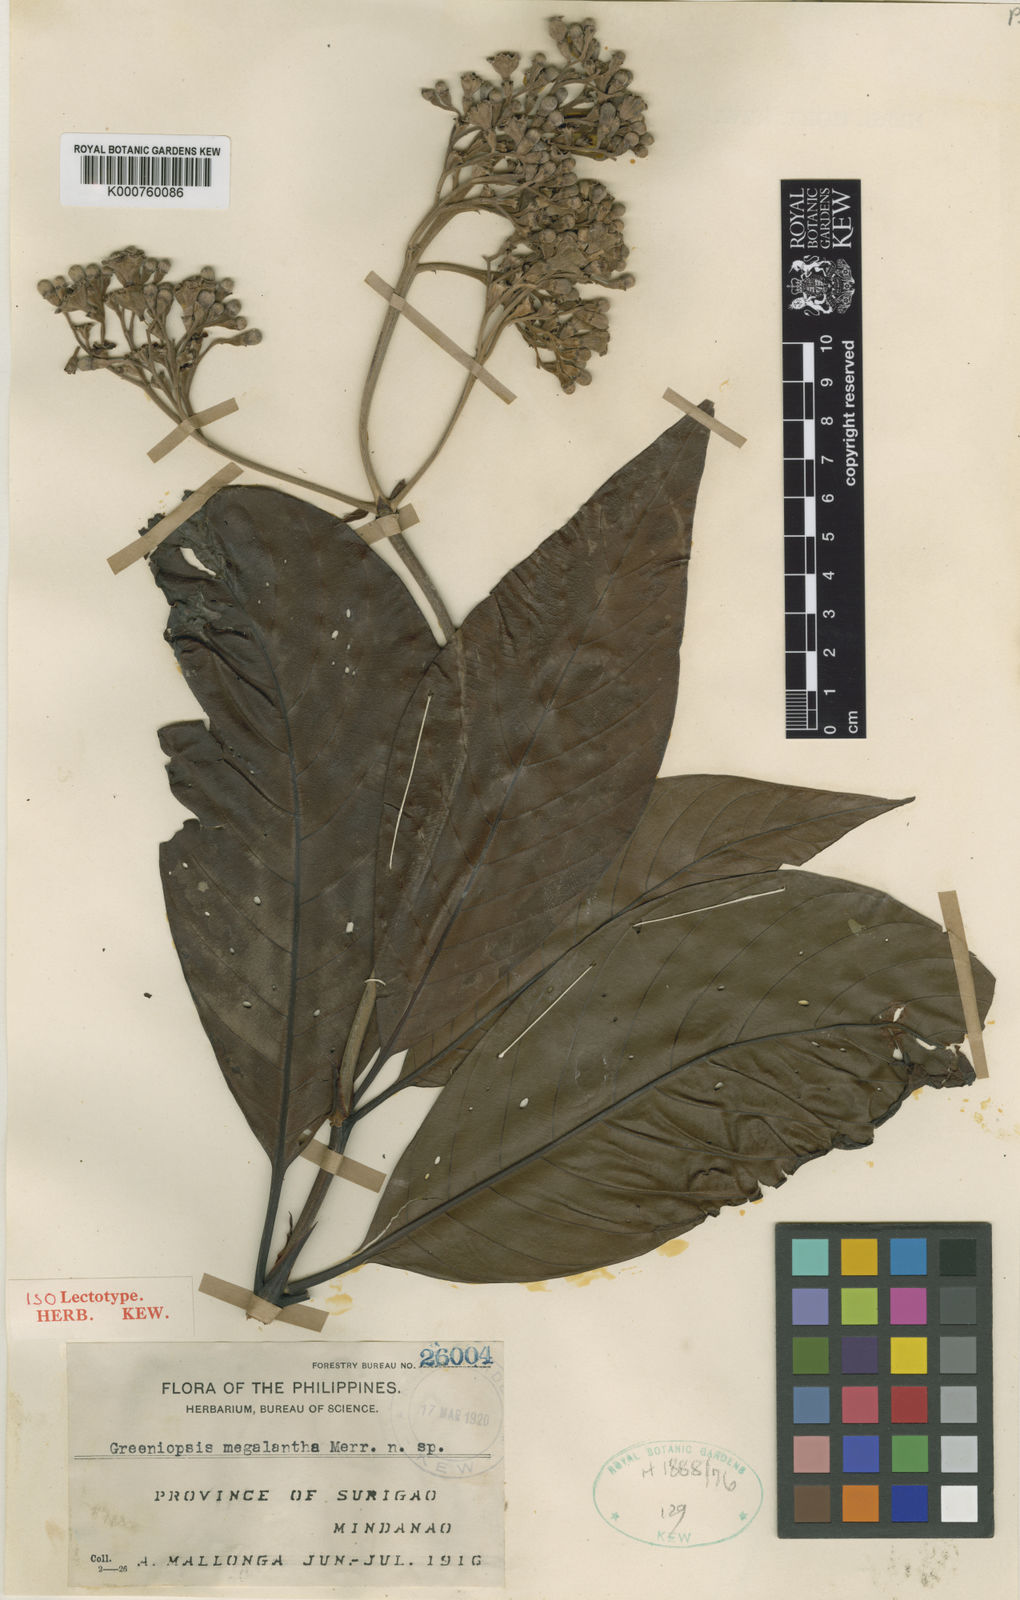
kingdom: Plantae
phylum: Tracheophyta
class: Magnoliopsida
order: Gentianales
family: Rubiaceae
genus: Greeniopsis
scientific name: Greeniopsis megalantha
